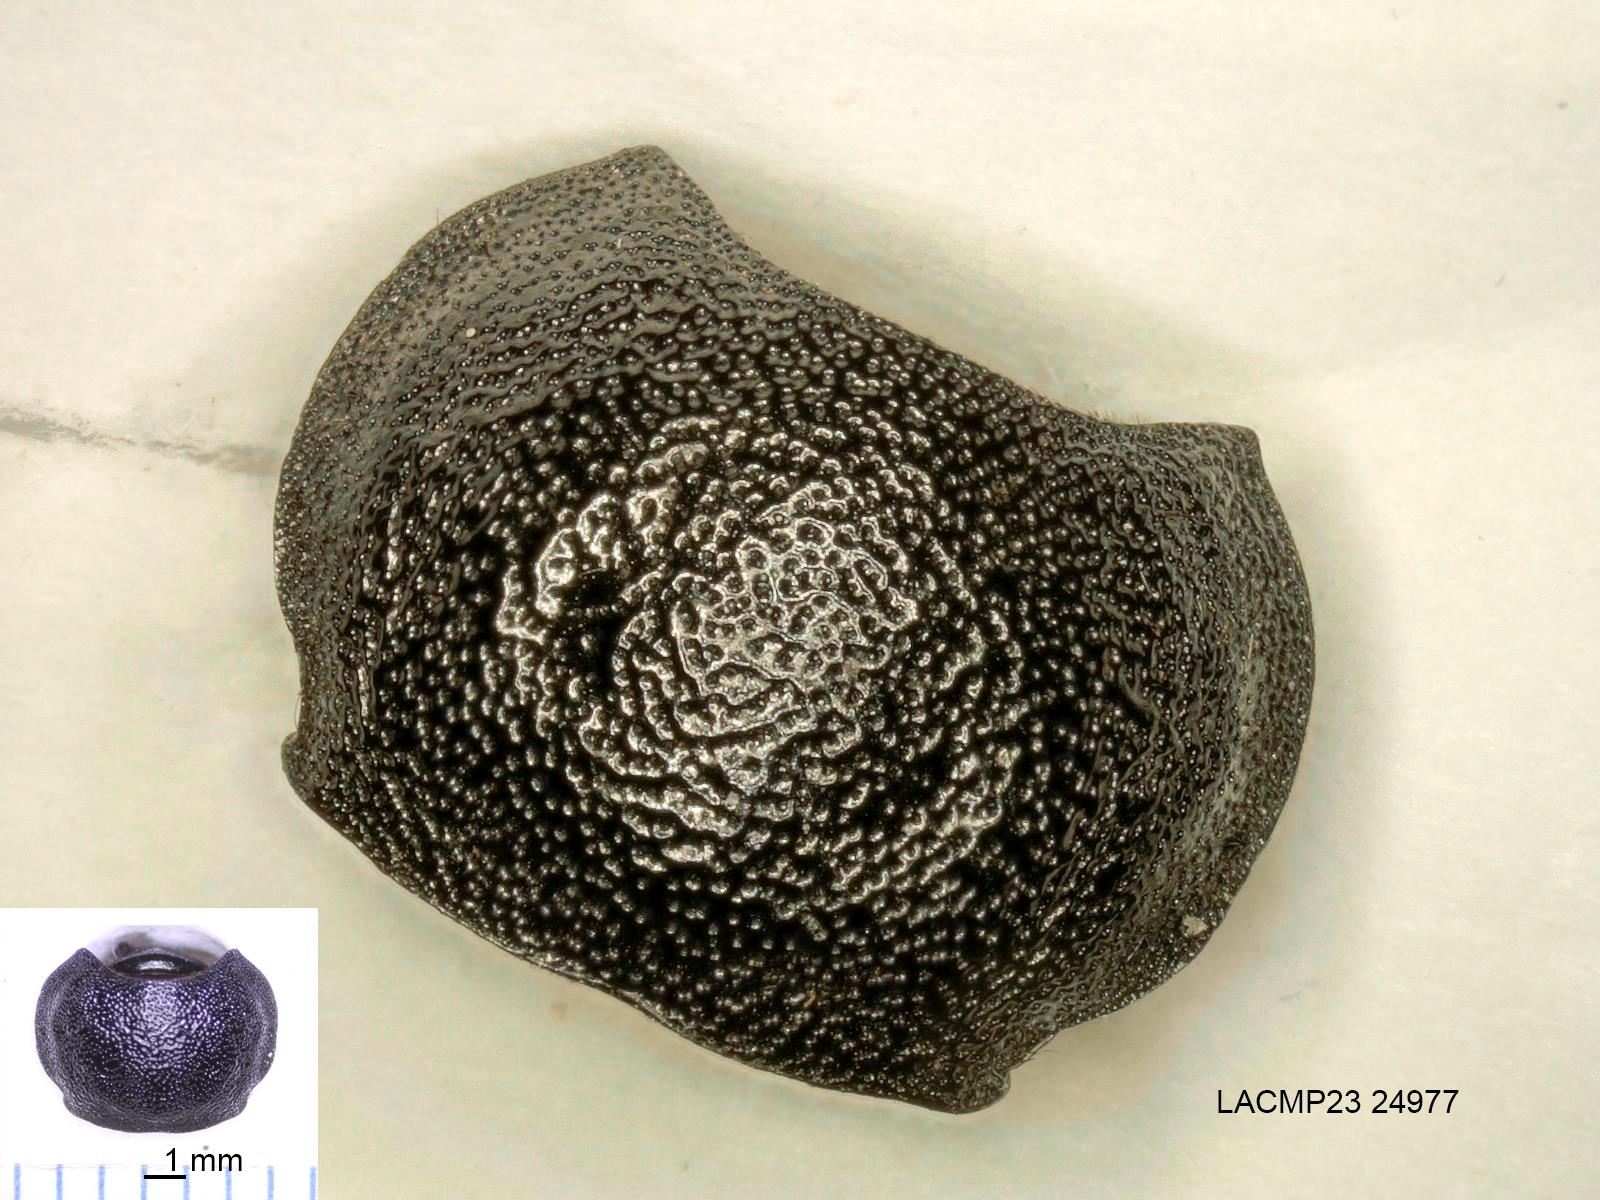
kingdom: Animalia
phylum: Arthropoda
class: Insecta
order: Coleoptera
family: Carabidae
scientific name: Carabidae
